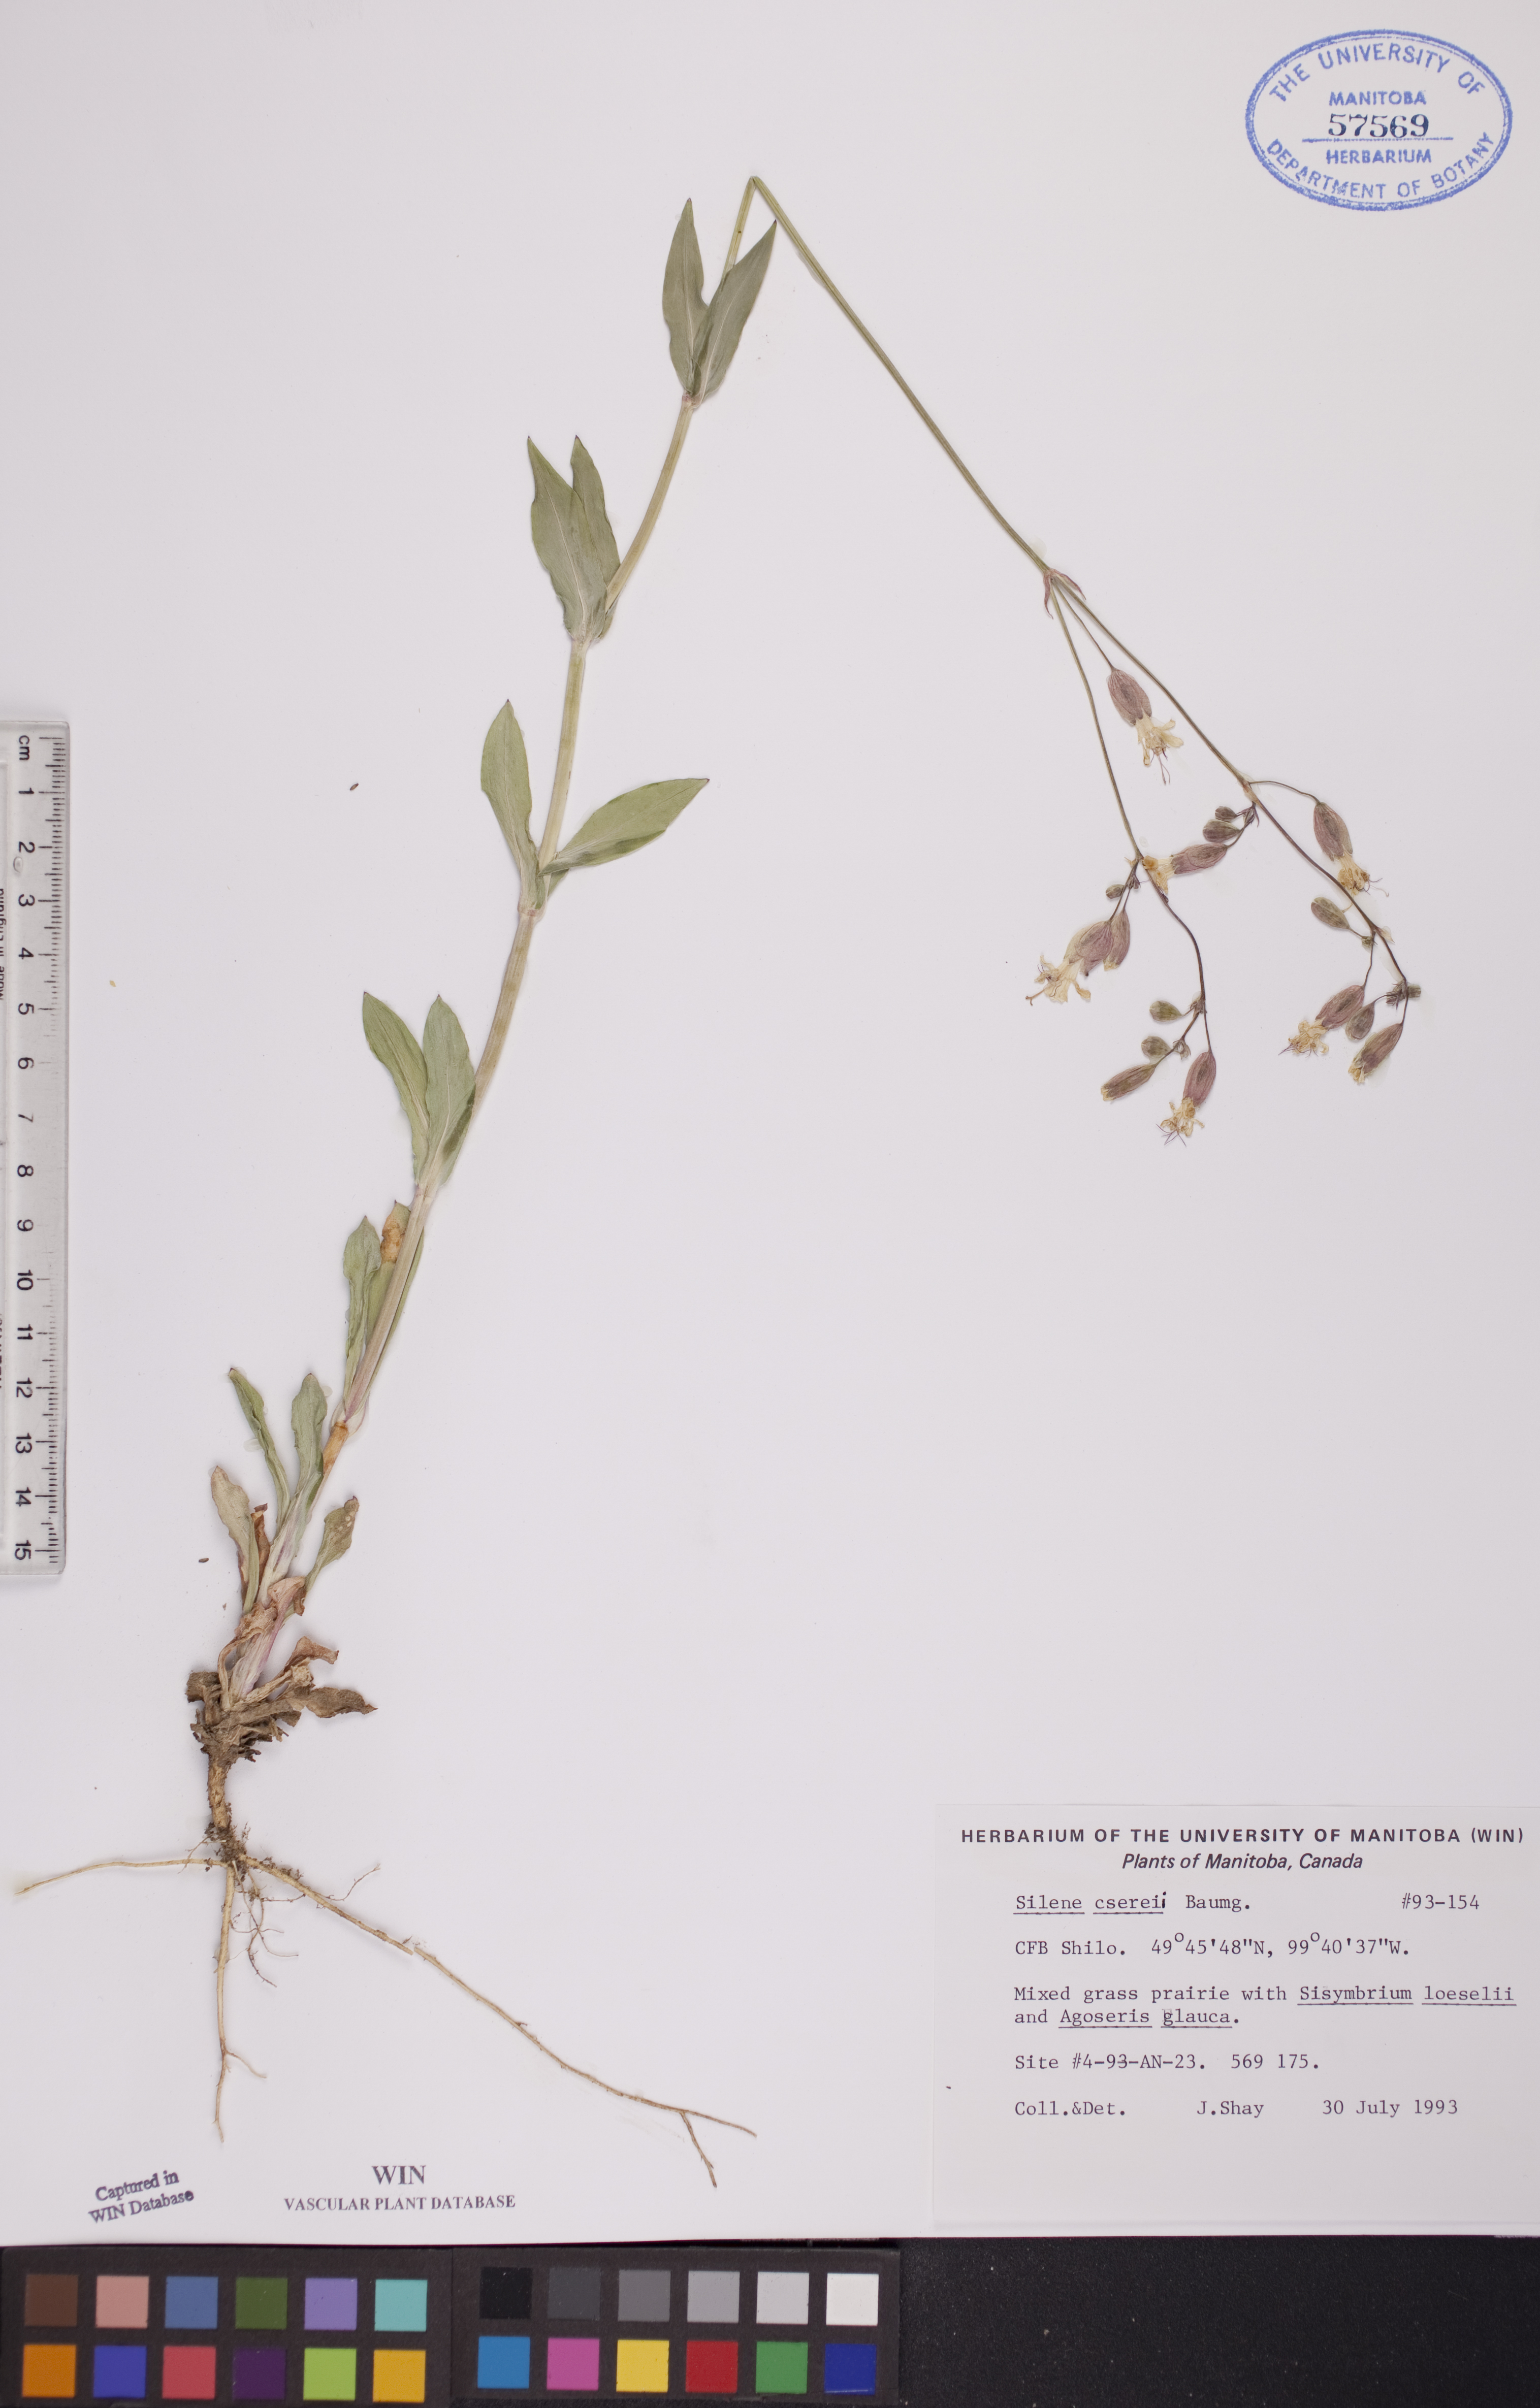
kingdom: Plantae
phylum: Tracheophyta
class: Magnoliopsida
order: Caryophyllales
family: Caryophyllaceae
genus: Silene
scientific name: Silene csereii
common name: Balkan catchfly
